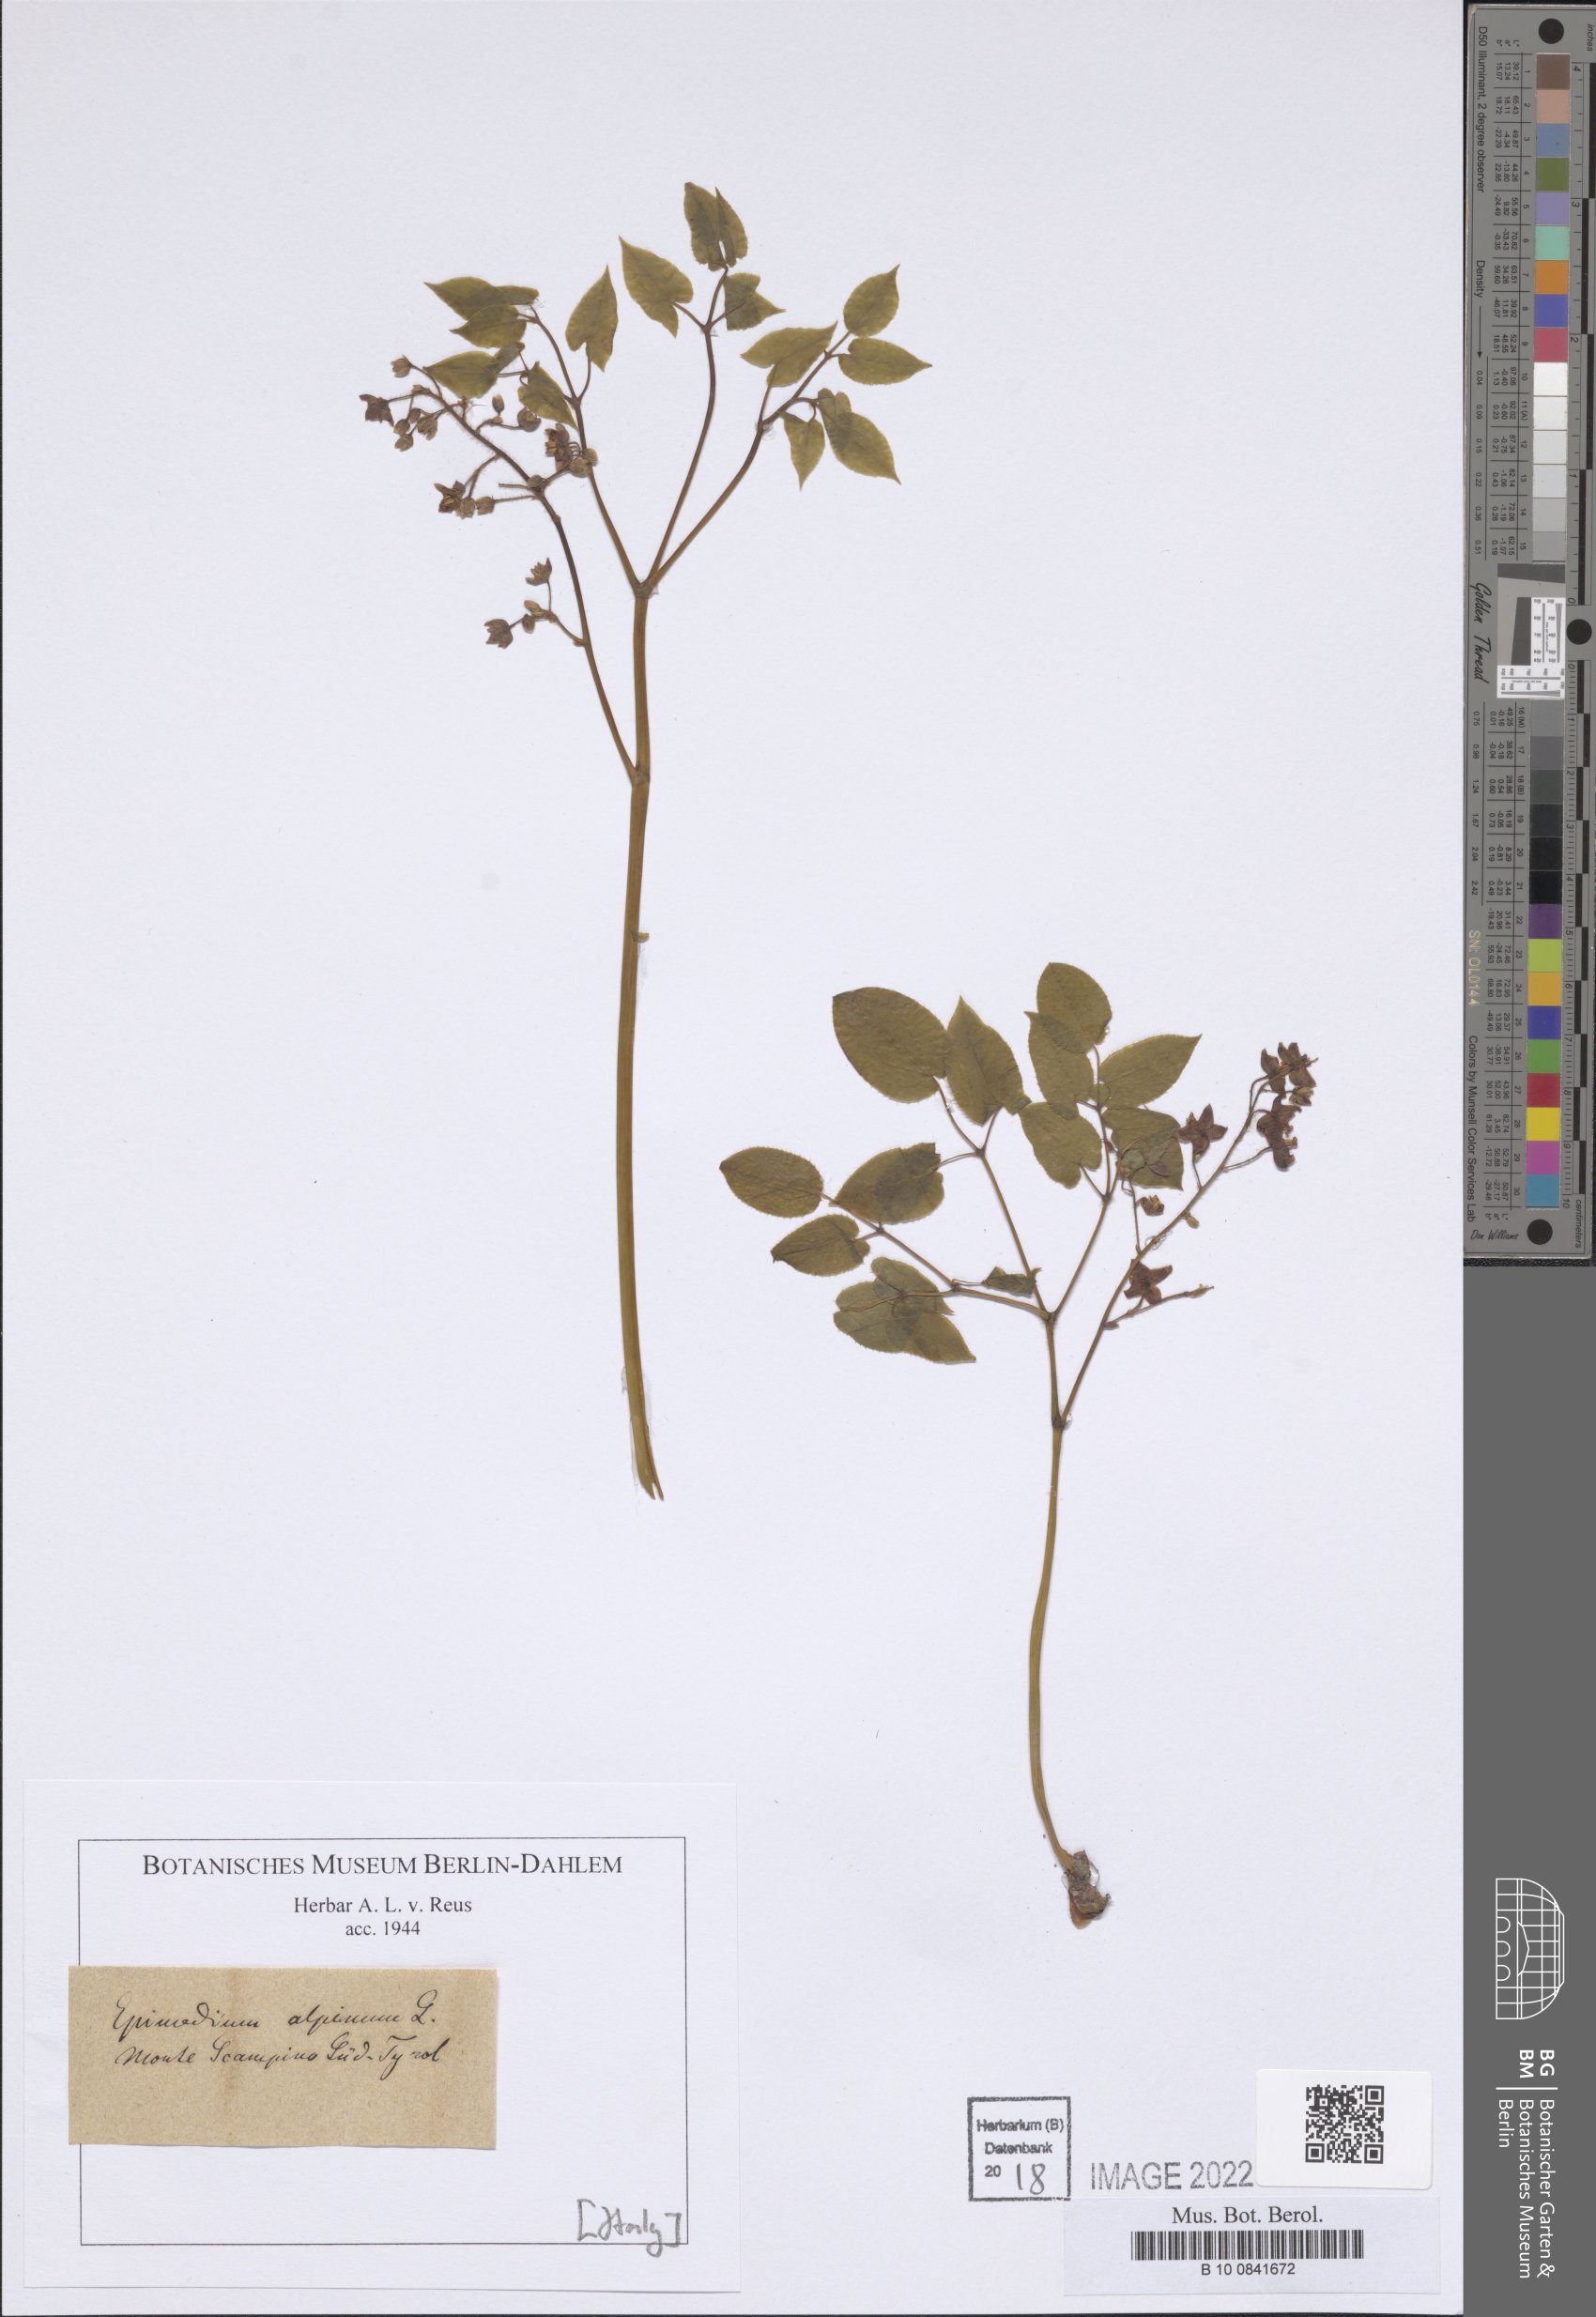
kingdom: Plantae
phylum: Tracheophyta
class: Magnoliopsida
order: Ranunculales
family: Berberidaceae
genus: Epimedium
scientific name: Epimedium alpinum
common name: Barrenwort
